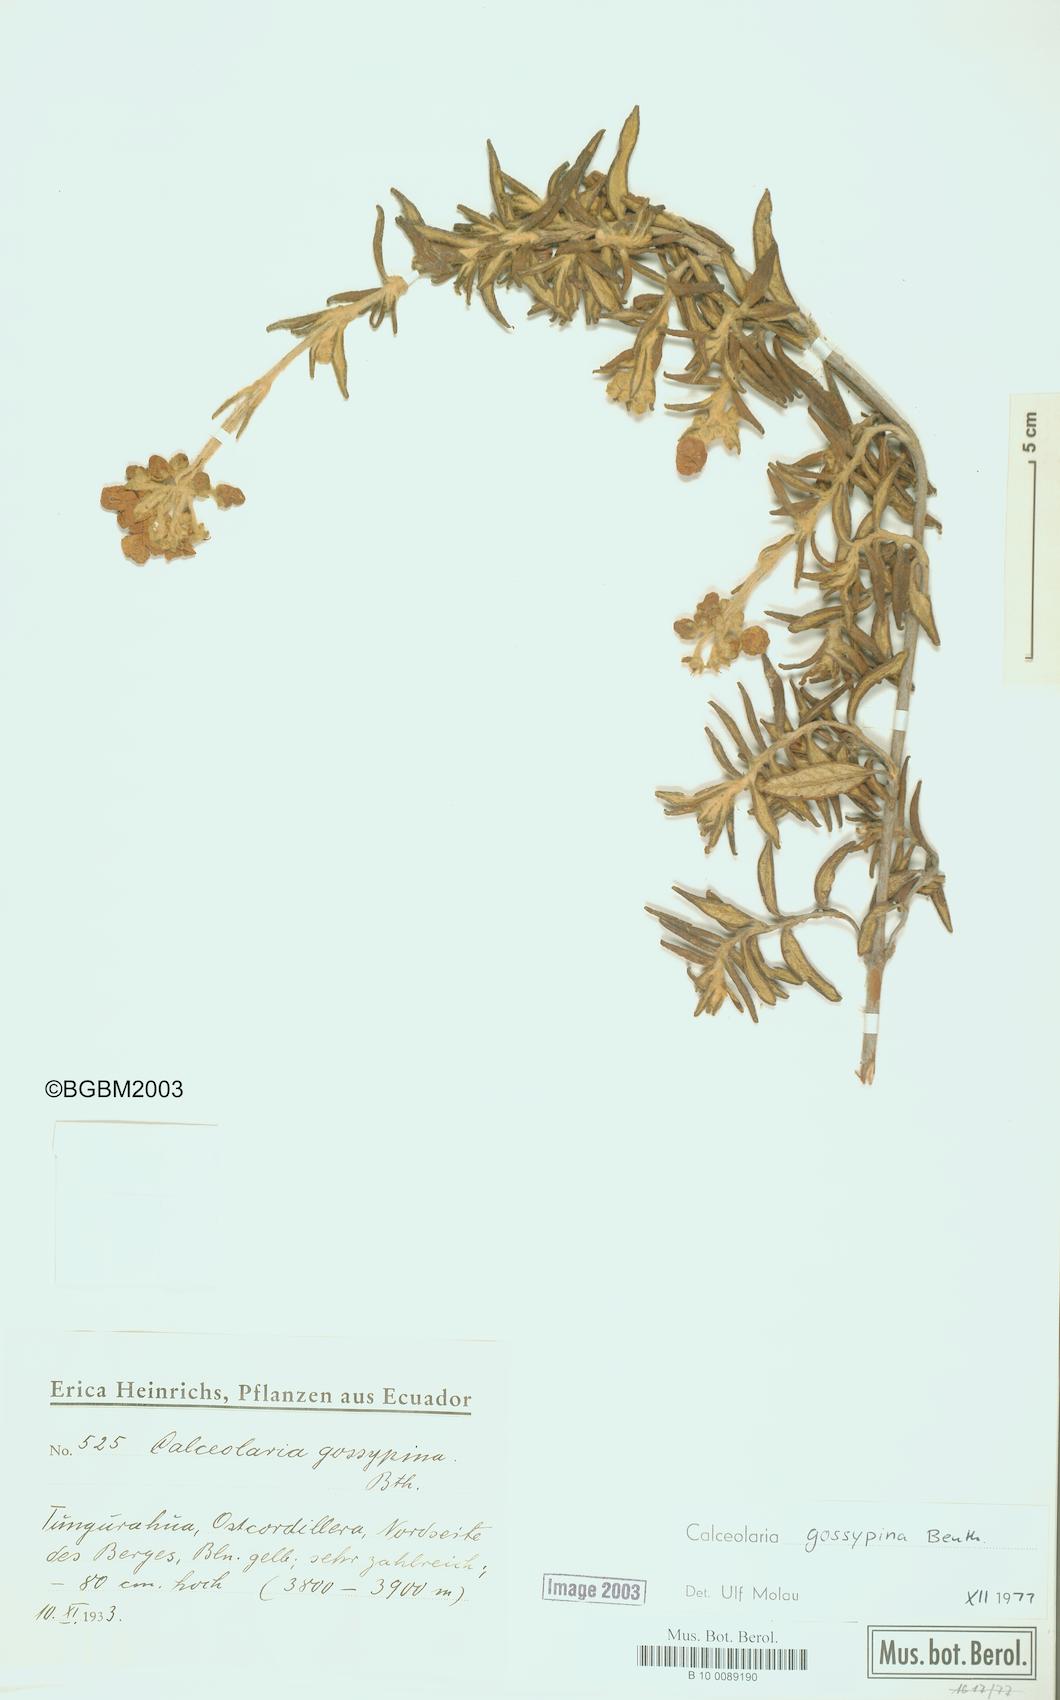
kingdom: Plantae
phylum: Tracheophyta
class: Magnoliopsida
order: Lamiales
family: Calceolariaceae
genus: Calceolaria
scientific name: Calceolaria gossypina
